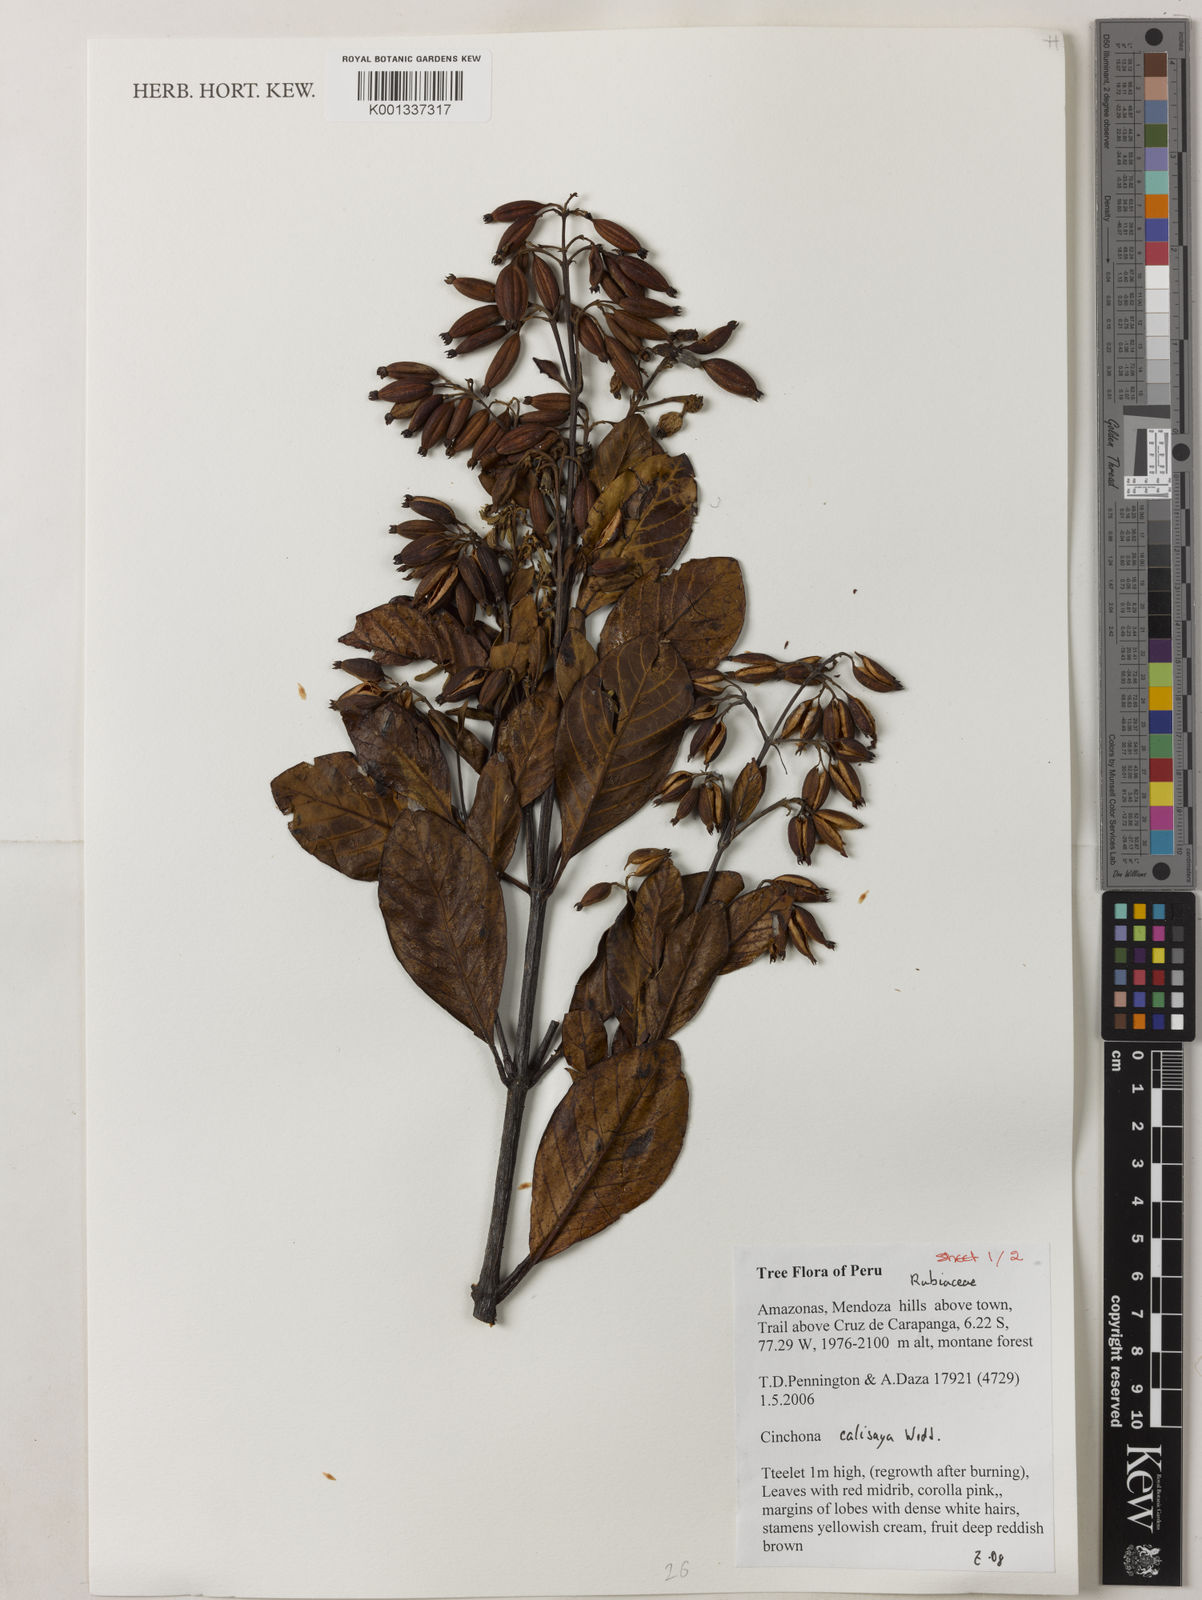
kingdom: Plantae
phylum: Tracheophyta
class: Magnoliopsida
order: Gentianales
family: Rubiaceae
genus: Cinchona
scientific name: Cinchona calisaya
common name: Ledgerbark
